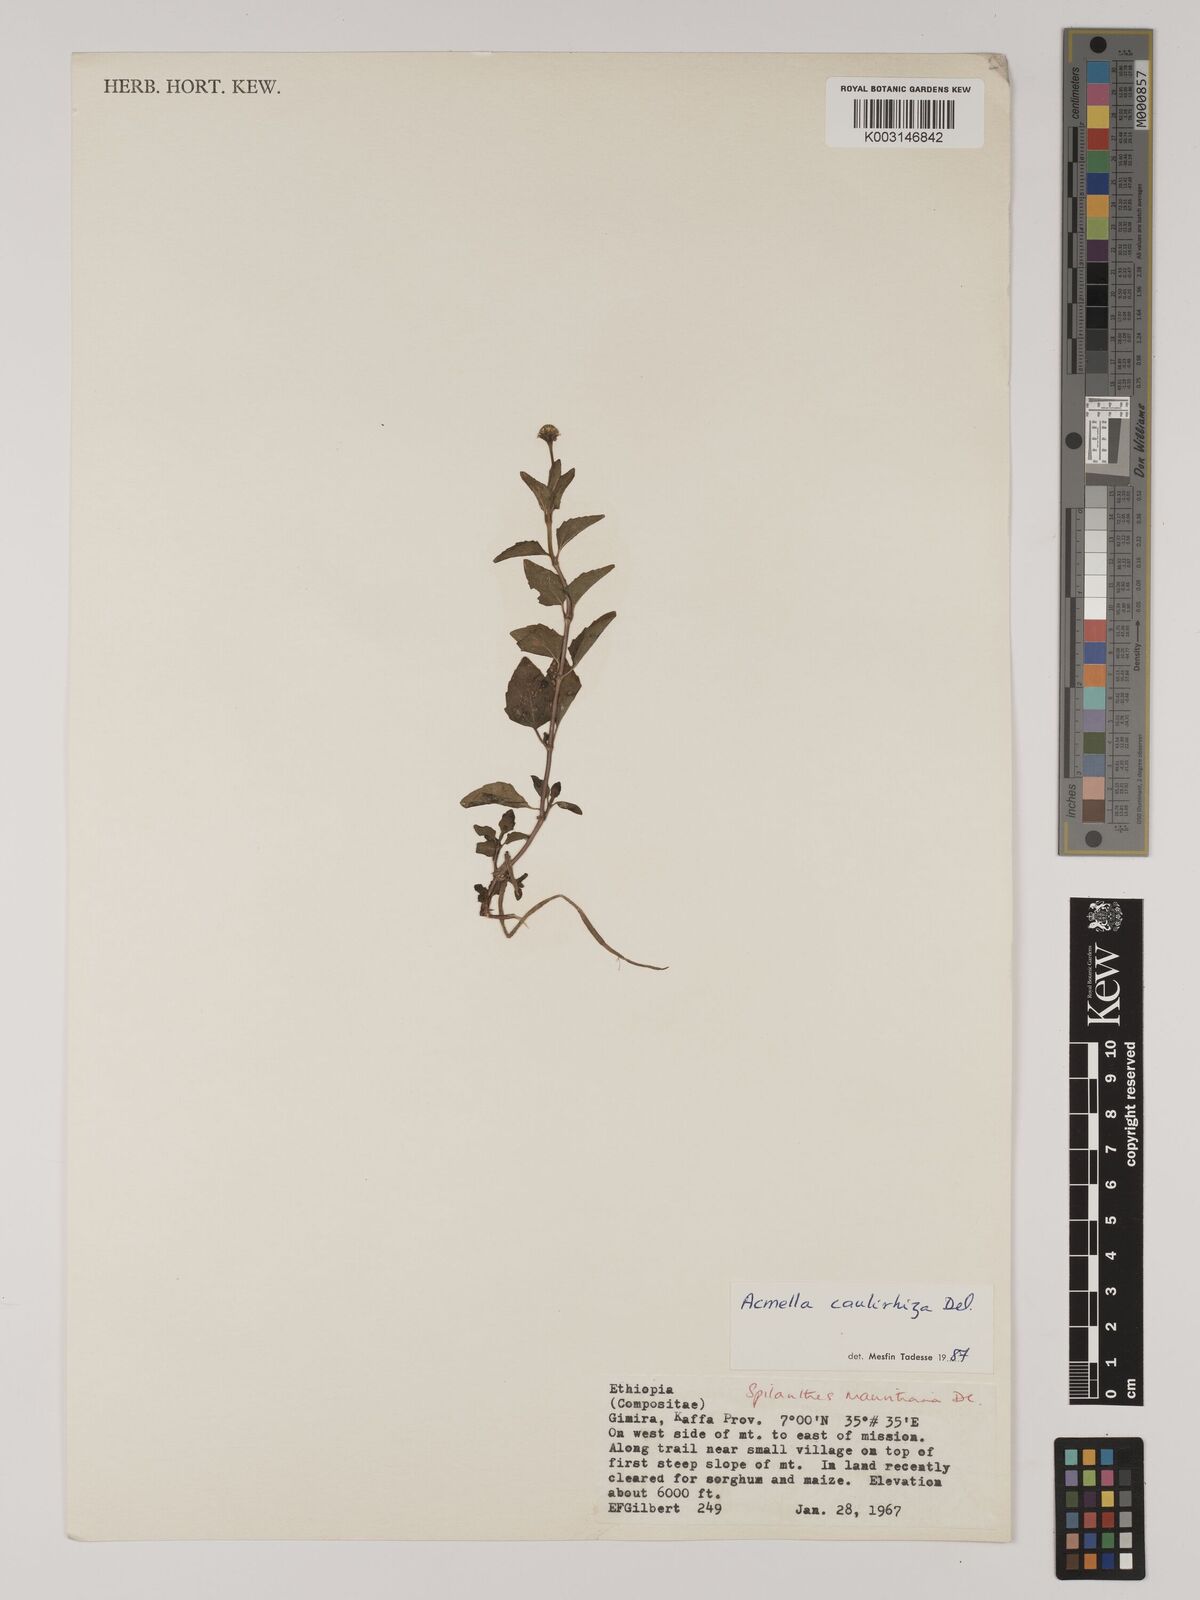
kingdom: Plantae
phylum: Tracheophyta
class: Magnoliopsida
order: Asterales
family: Asteraceae
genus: Acmella
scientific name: Acmella caulirhiza
